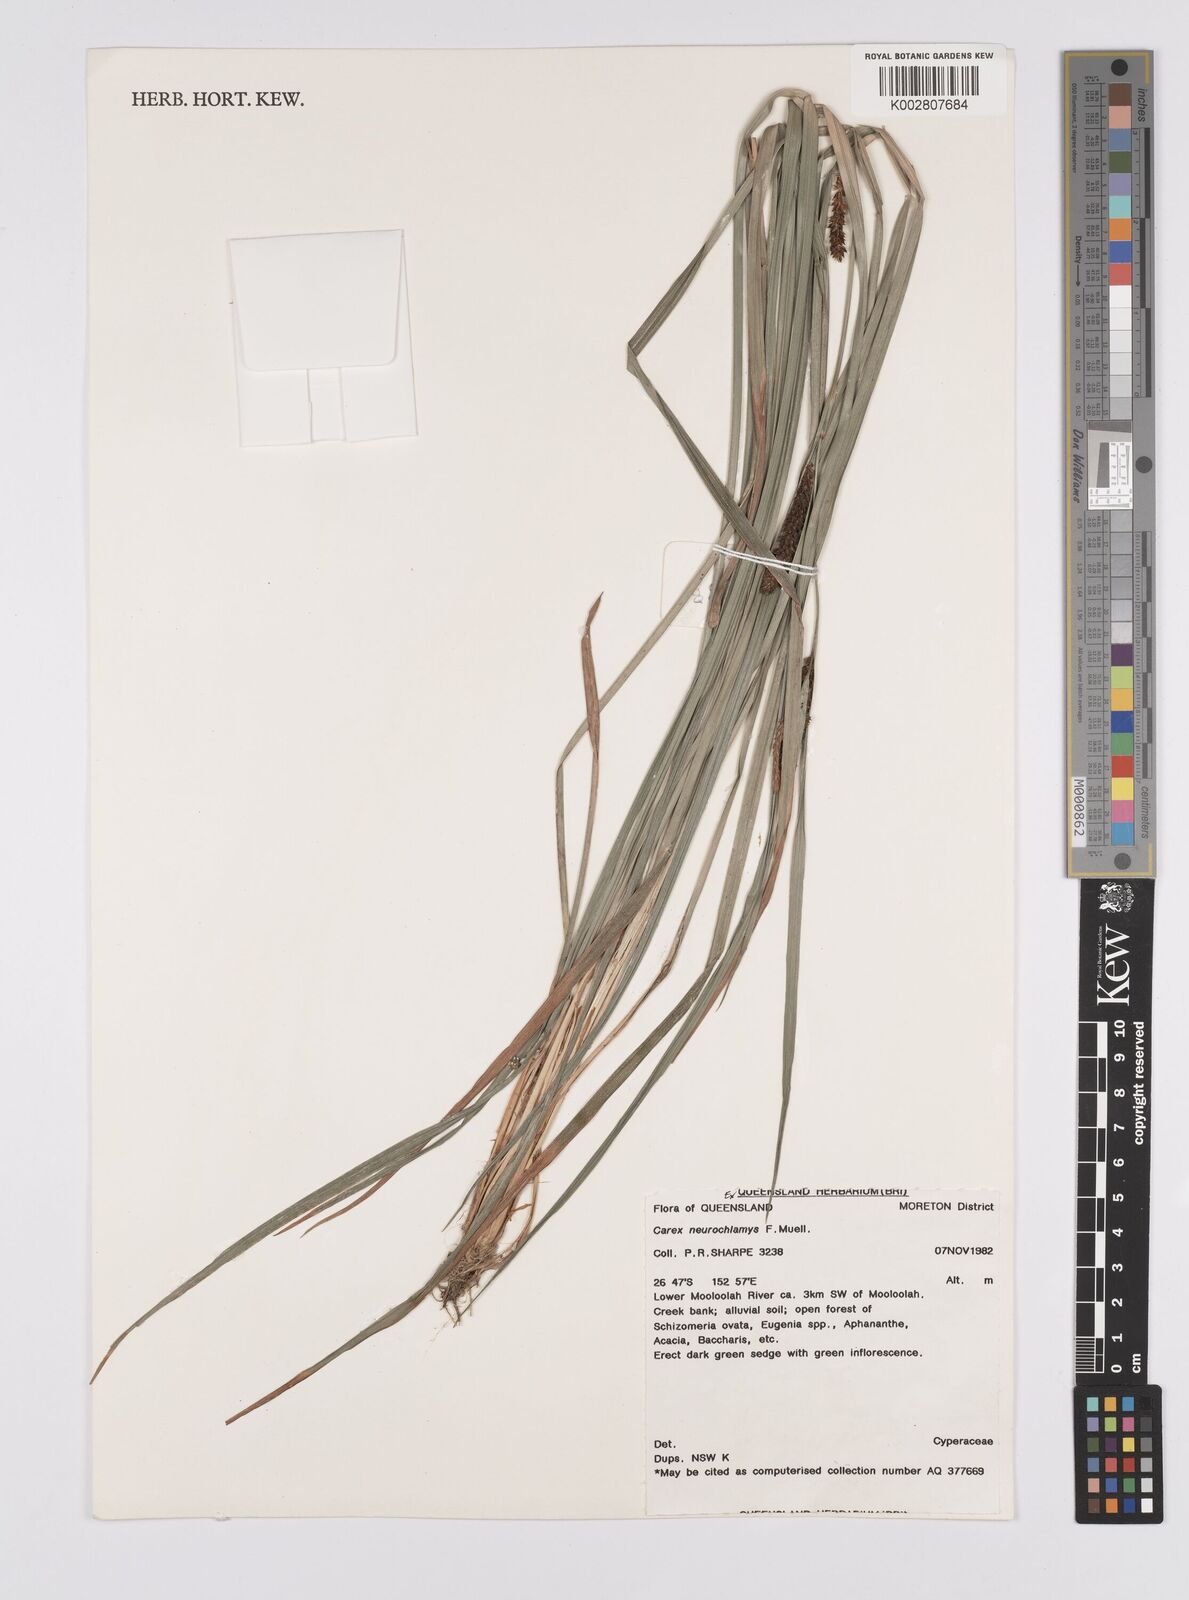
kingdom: Plantae
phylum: Tracheophyta
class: Liliopsida
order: Poales
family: Cyperaceae
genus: Carex
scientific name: Carex maculata
